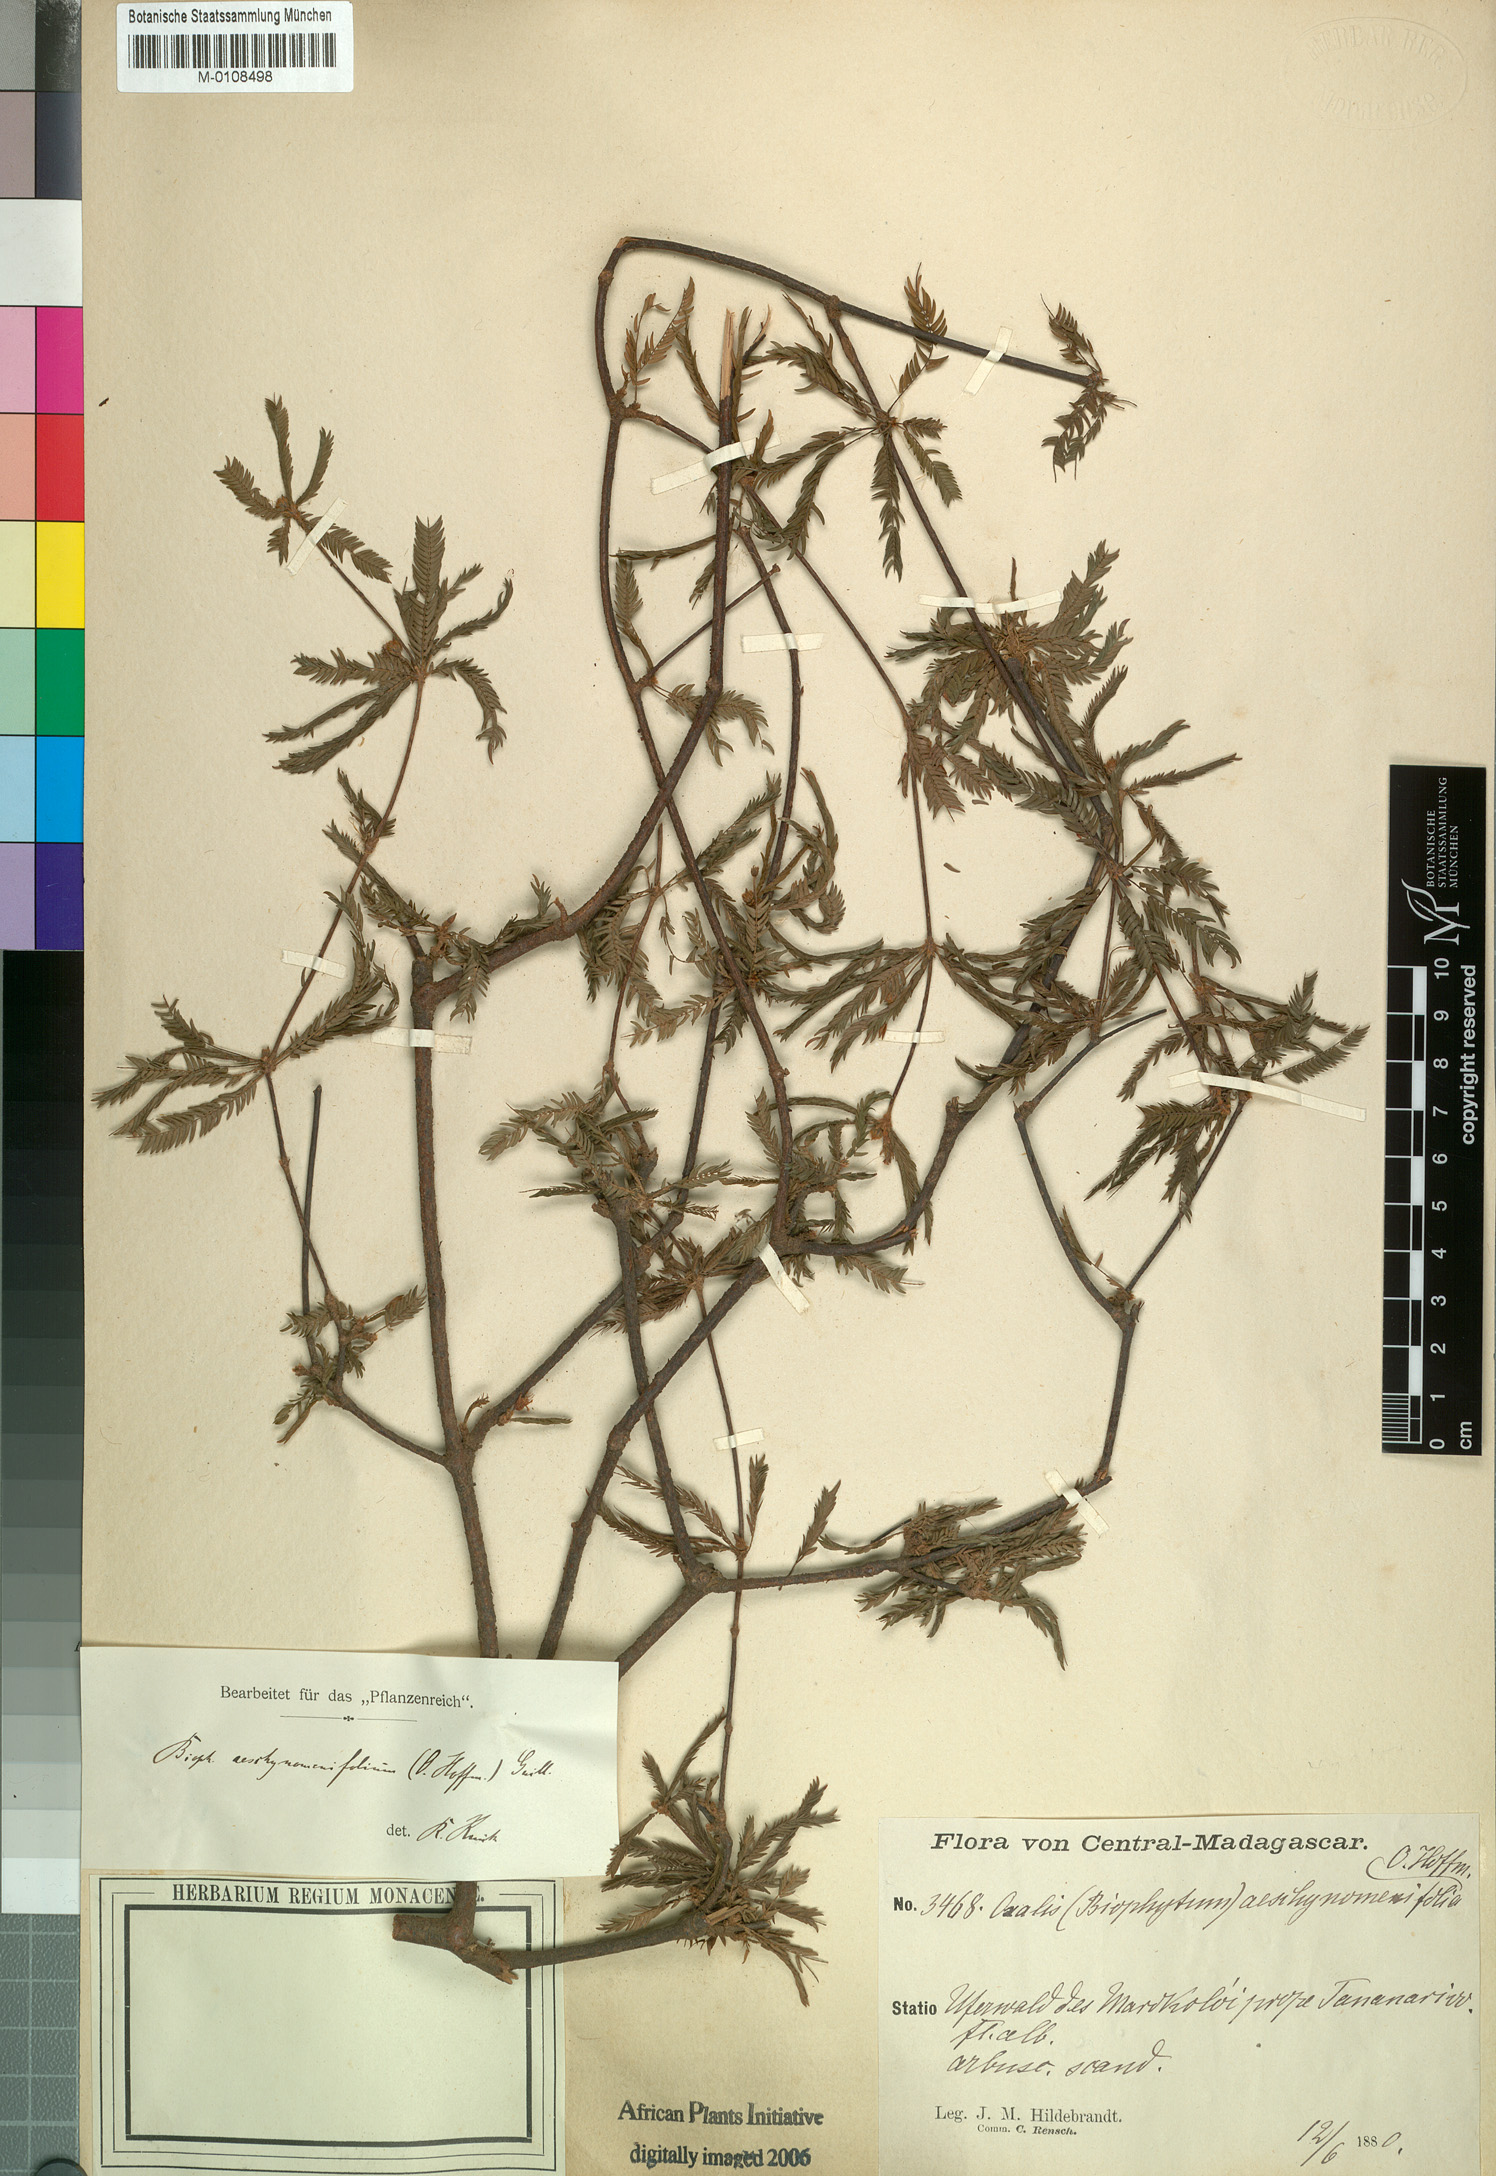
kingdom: Plantae
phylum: Tracheophyta
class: Magnoliopsida
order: Oxalidales
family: Oxalidaceae
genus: Biophytum
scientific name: Biophytum aeschynomenifolia
